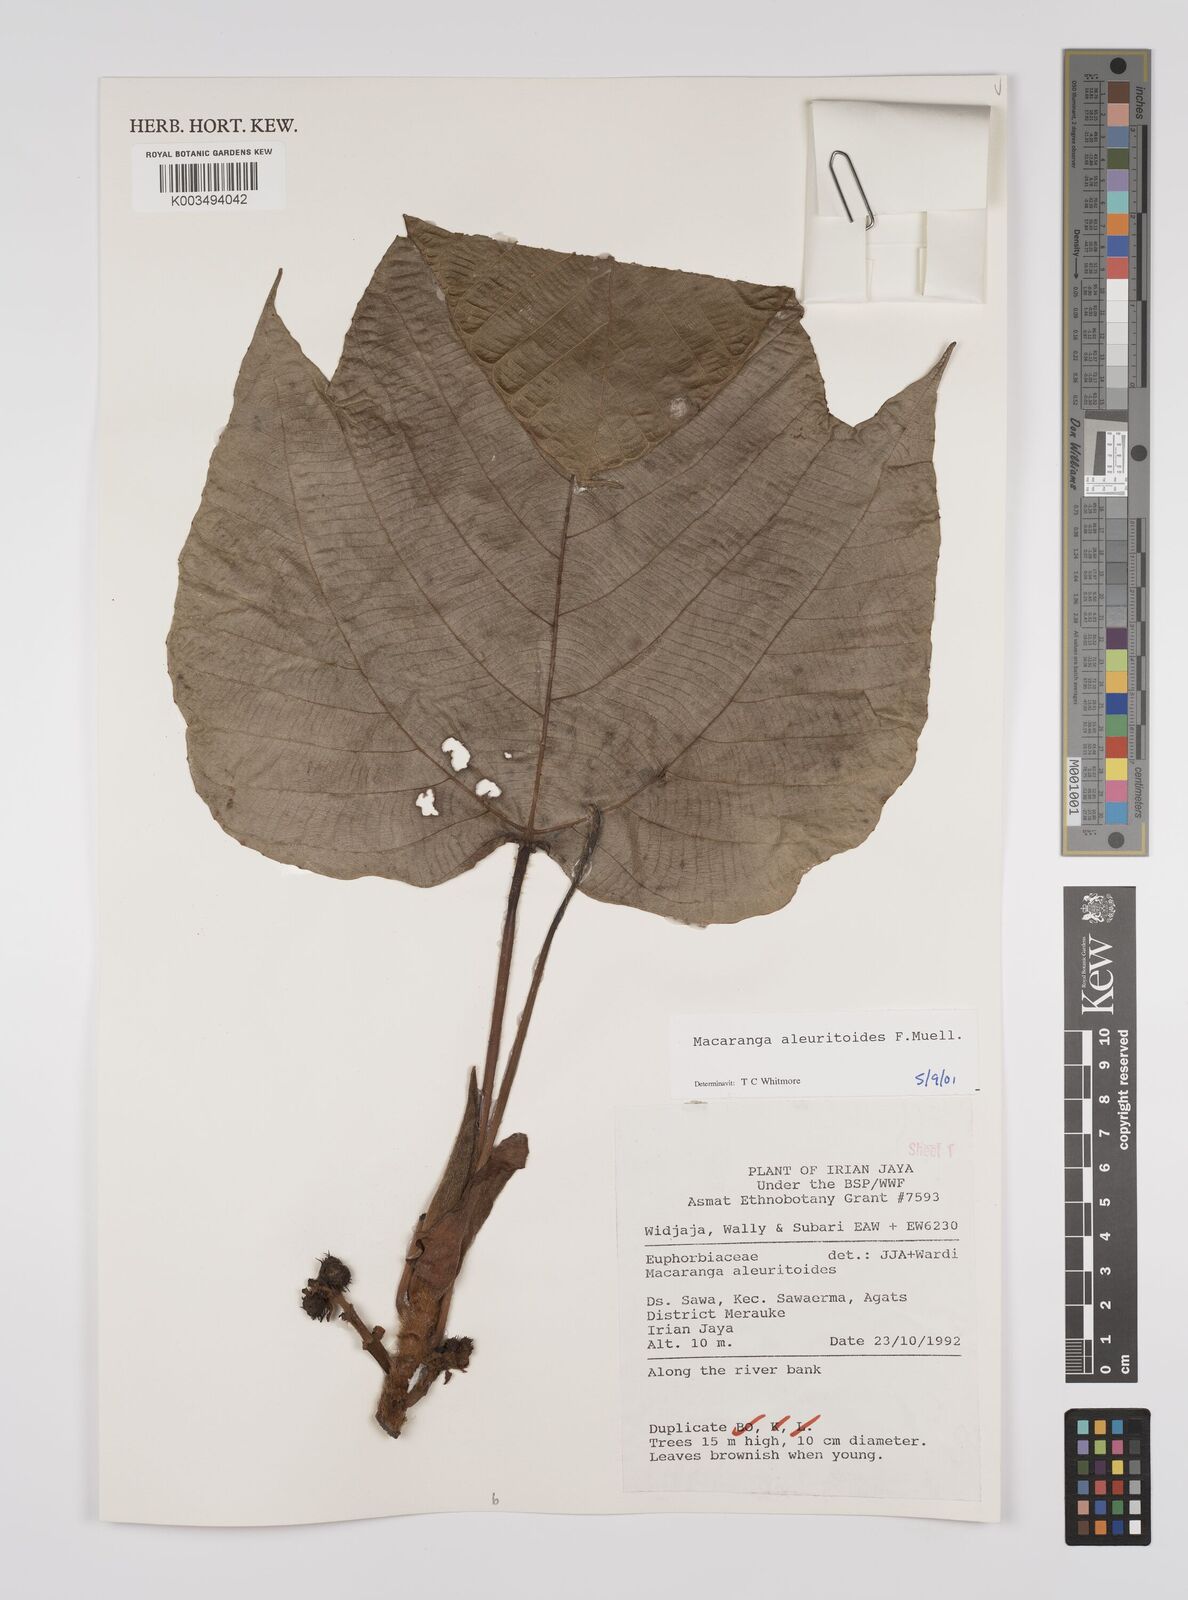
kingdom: Plantae
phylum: Tracheophyta
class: Magnoliopsida
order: Malpighiales
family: Euphorbiaceae
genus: Macaranga
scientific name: Macaranga aleuritoides
